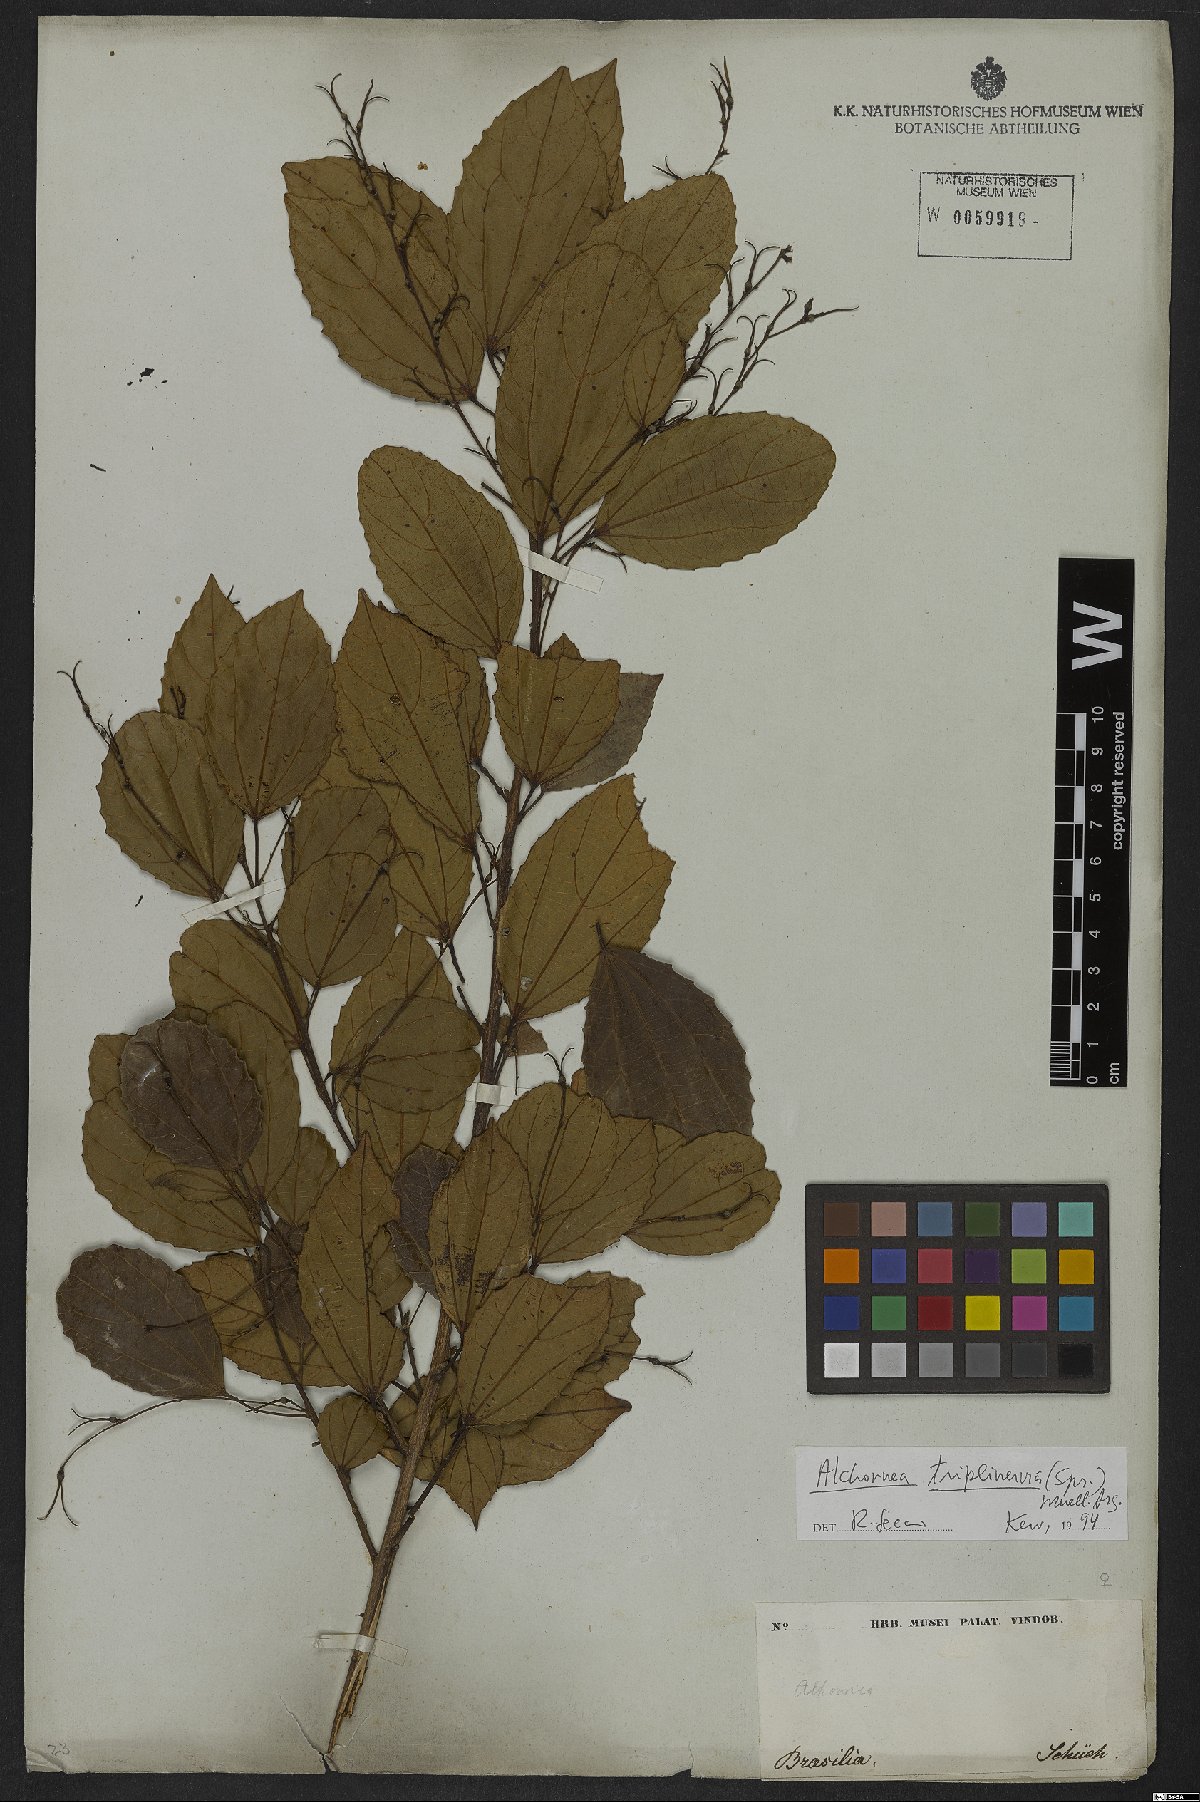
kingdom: Plantae
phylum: Tracheophyta
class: Magnoliopsida
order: Malpighiales
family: Euphorbiaceae
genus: Alchornea
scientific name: Alchornea triplinervia
